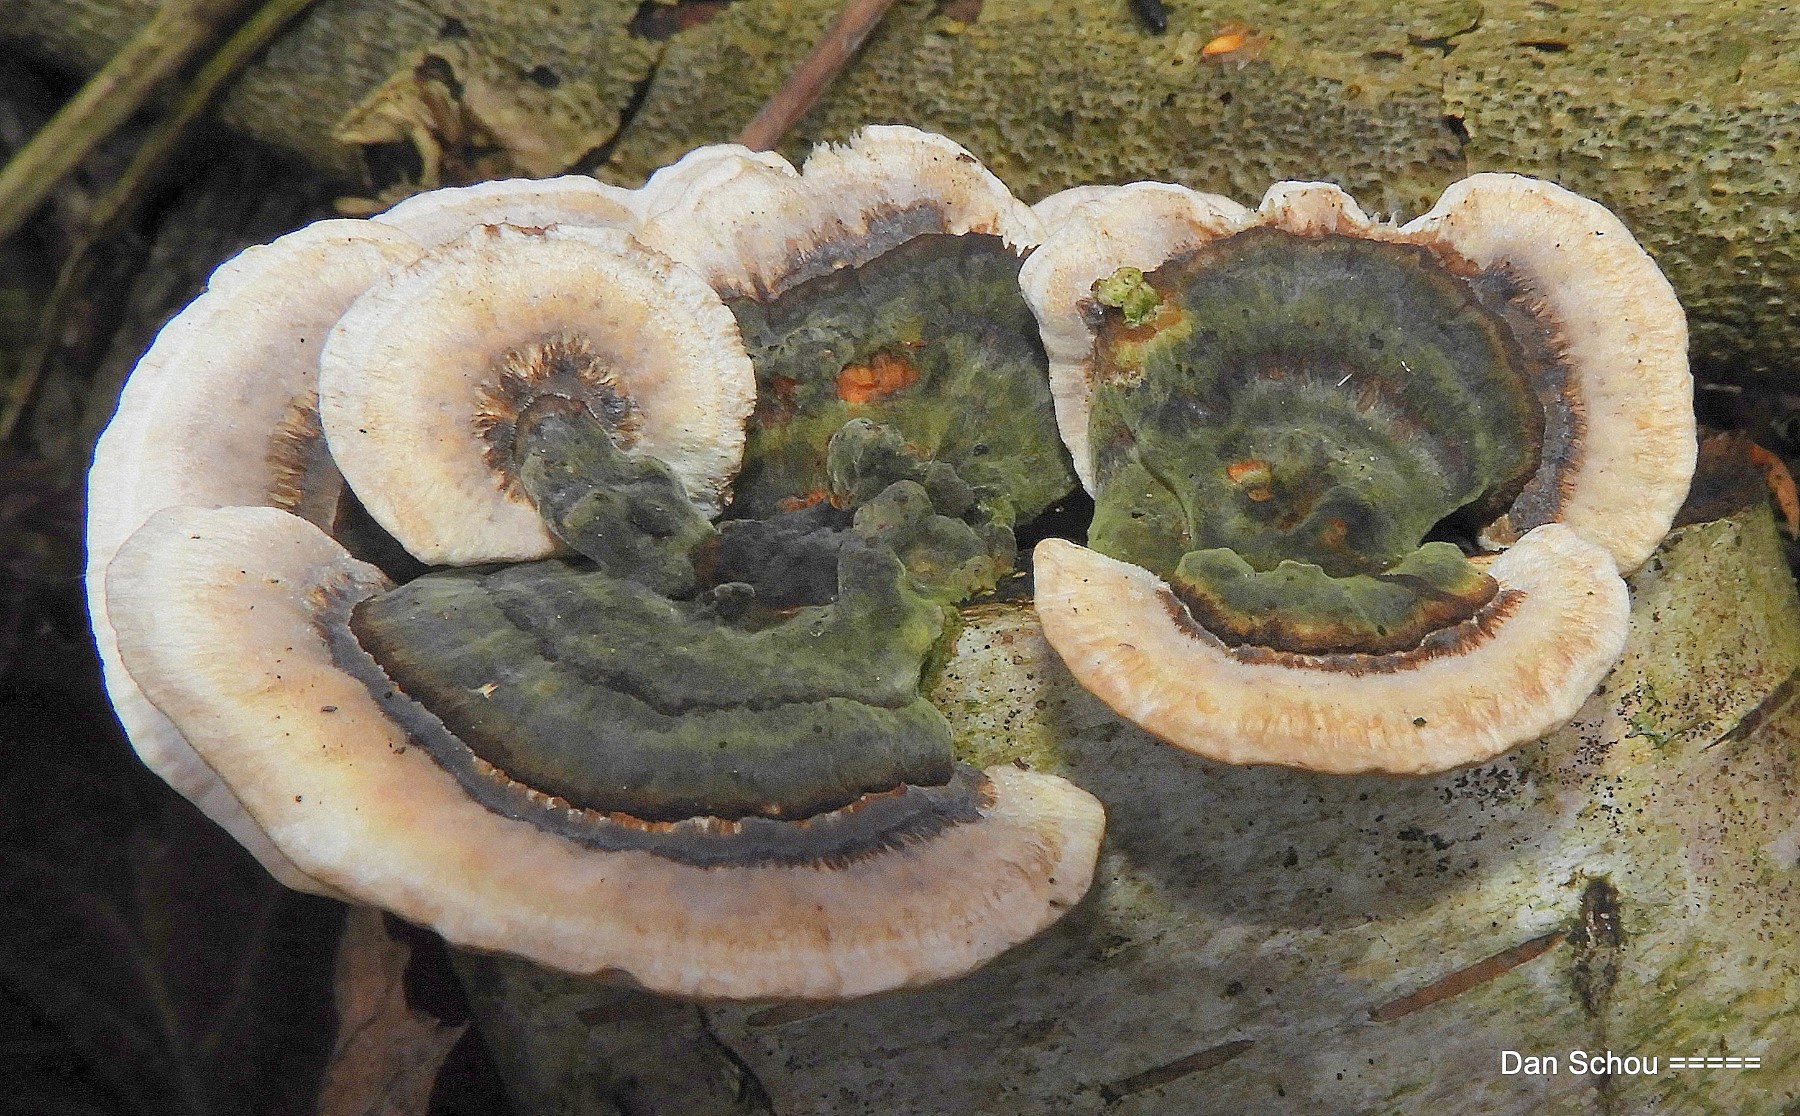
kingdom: Fungi
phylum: Basidiomycota
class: Agaricomycetes
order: Polyporales
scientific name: Polyporales
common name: poresvampordenen
